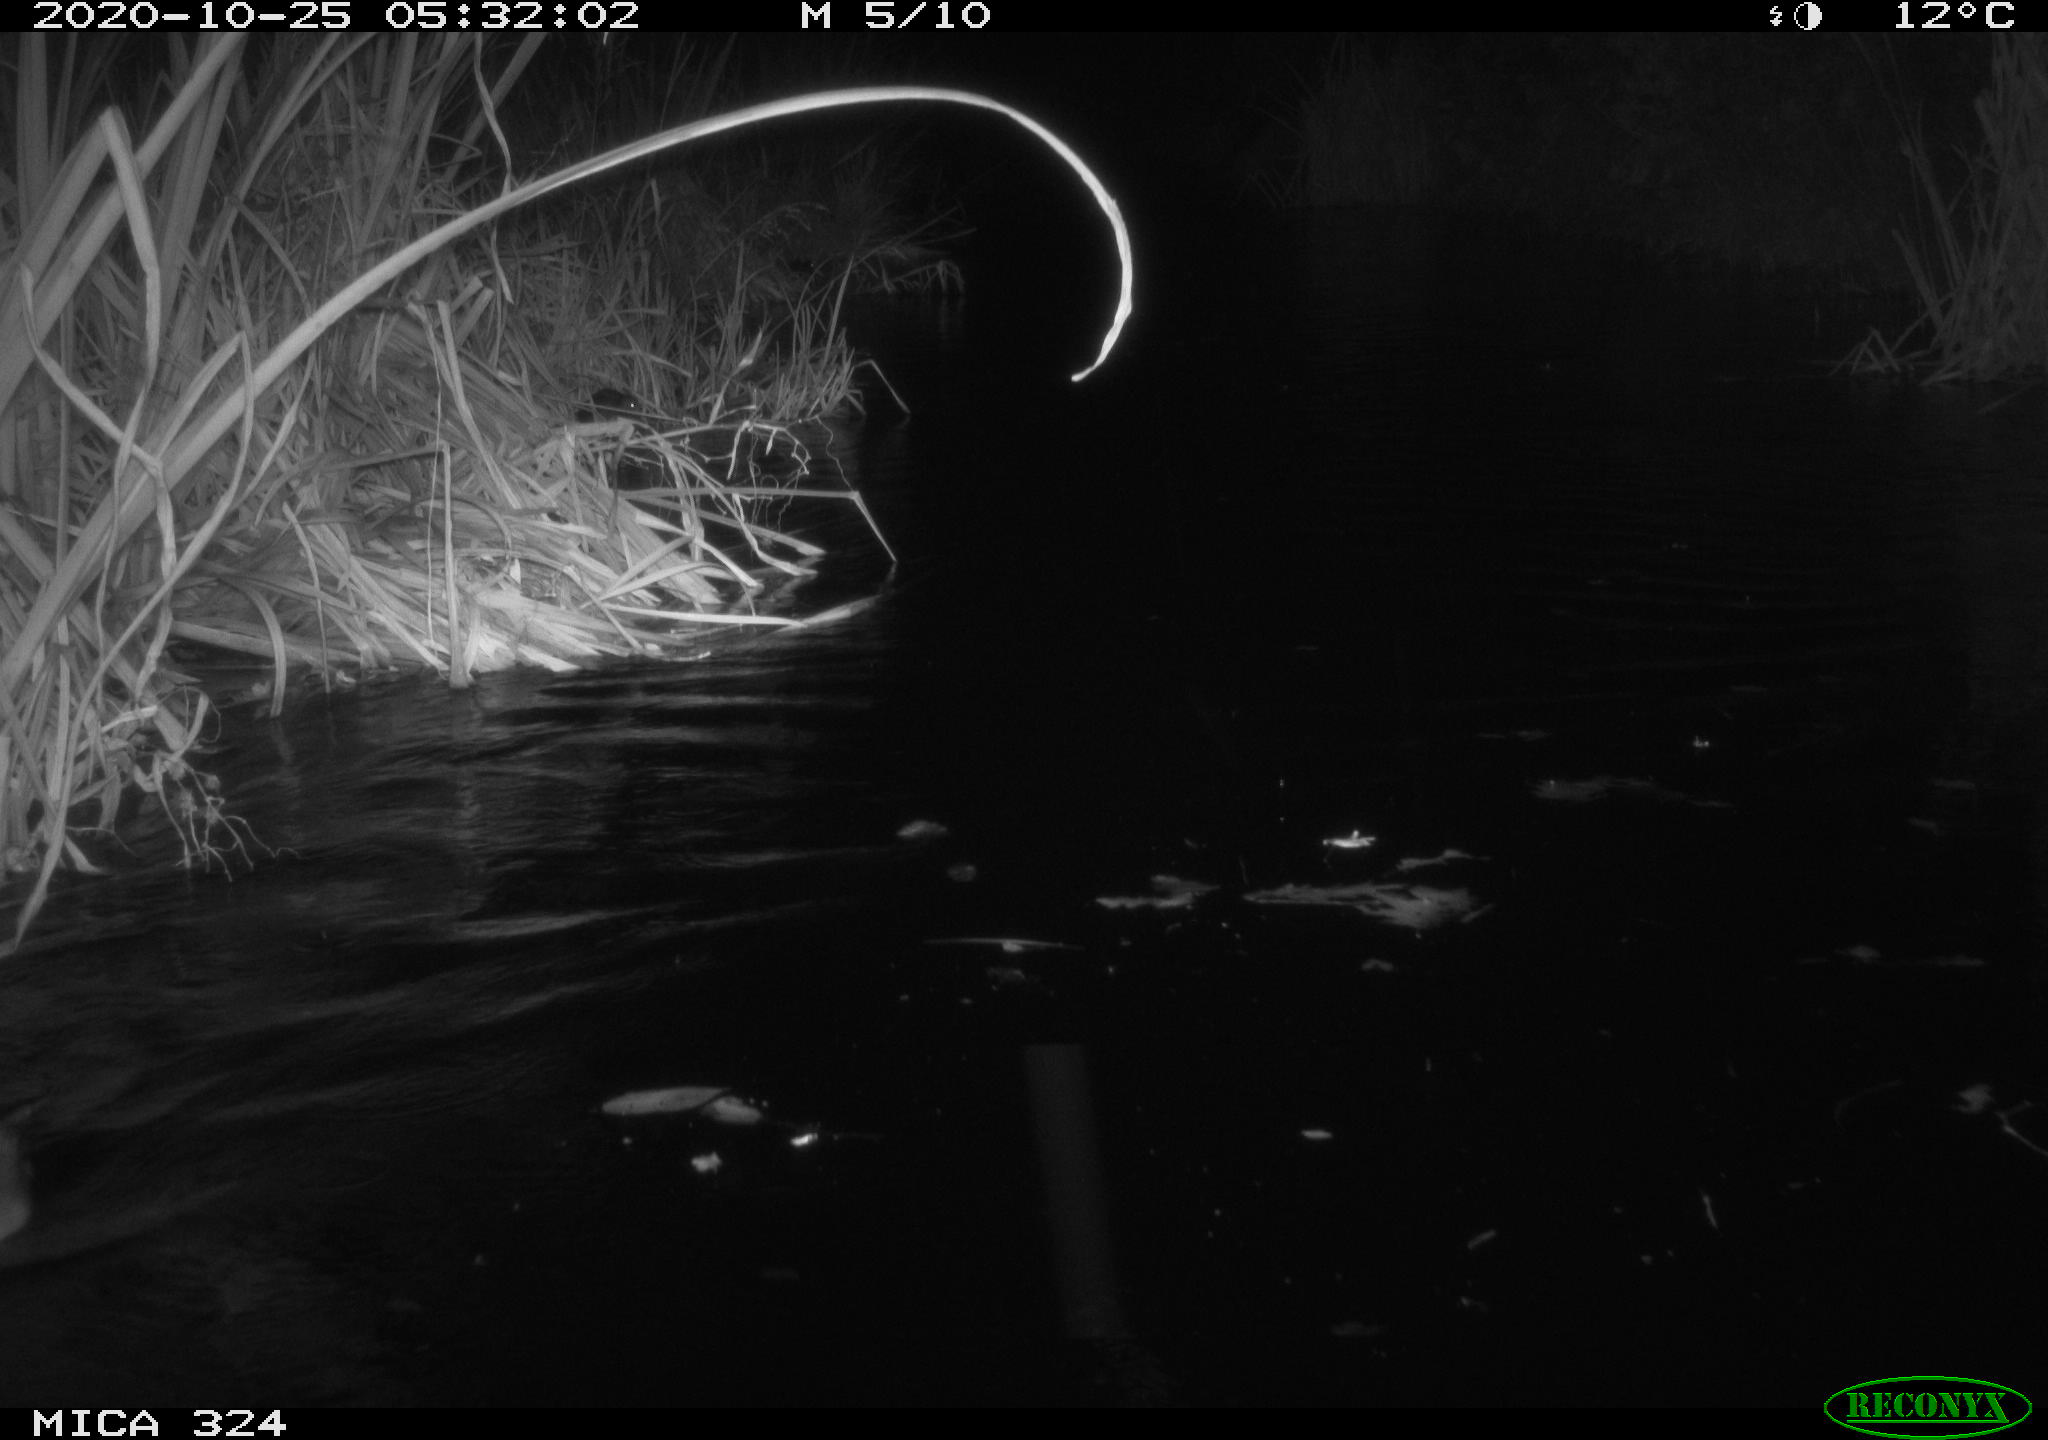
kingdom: Animalia
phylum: Chordata
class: Mammalia
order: Rodentia
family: Muridae
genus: Rattus
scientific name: Rattus norvegicus
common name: Brown rat
